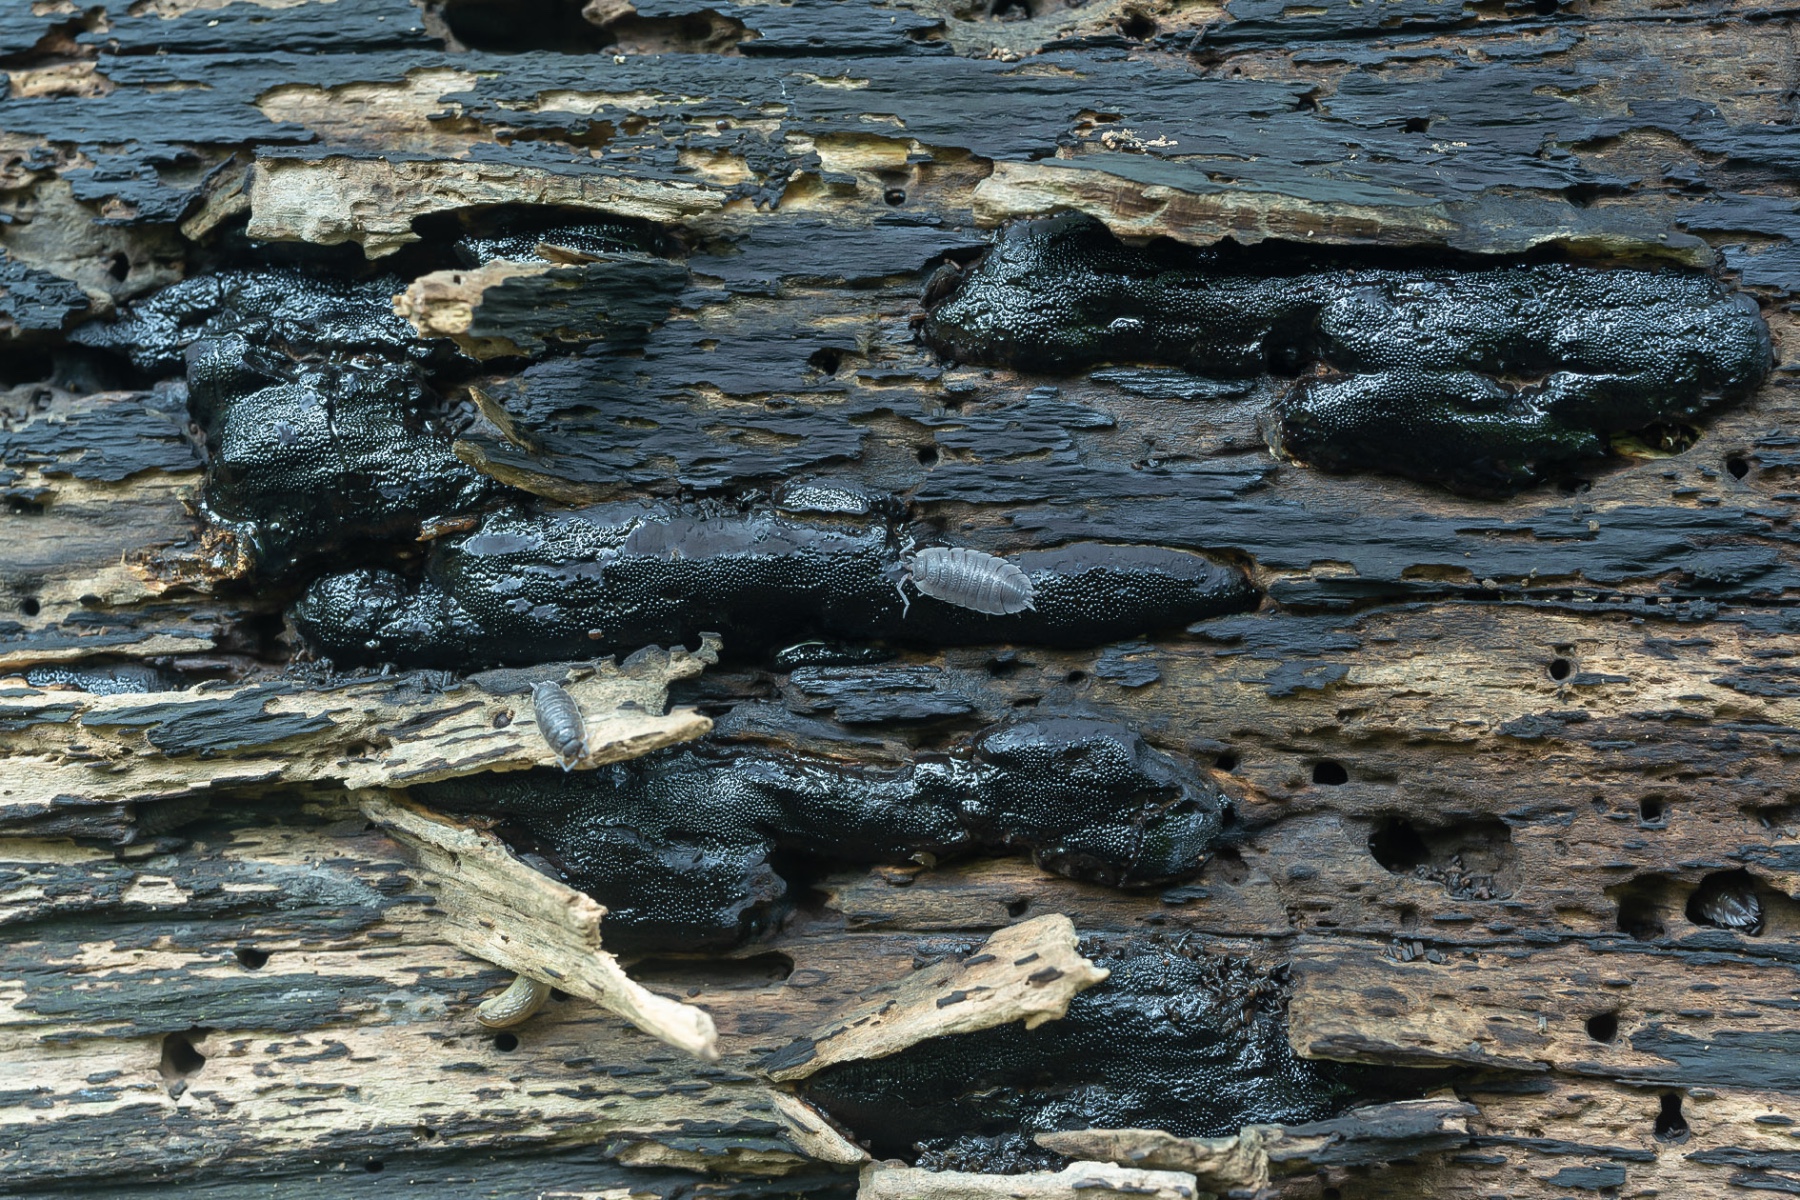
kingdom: Fungi
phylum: Ascomycota
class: Sordariomycetes
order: Boliniales
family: Boliniaceae
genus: Camarops
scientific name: Camarops polysperma
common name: elle-kulsnegl
